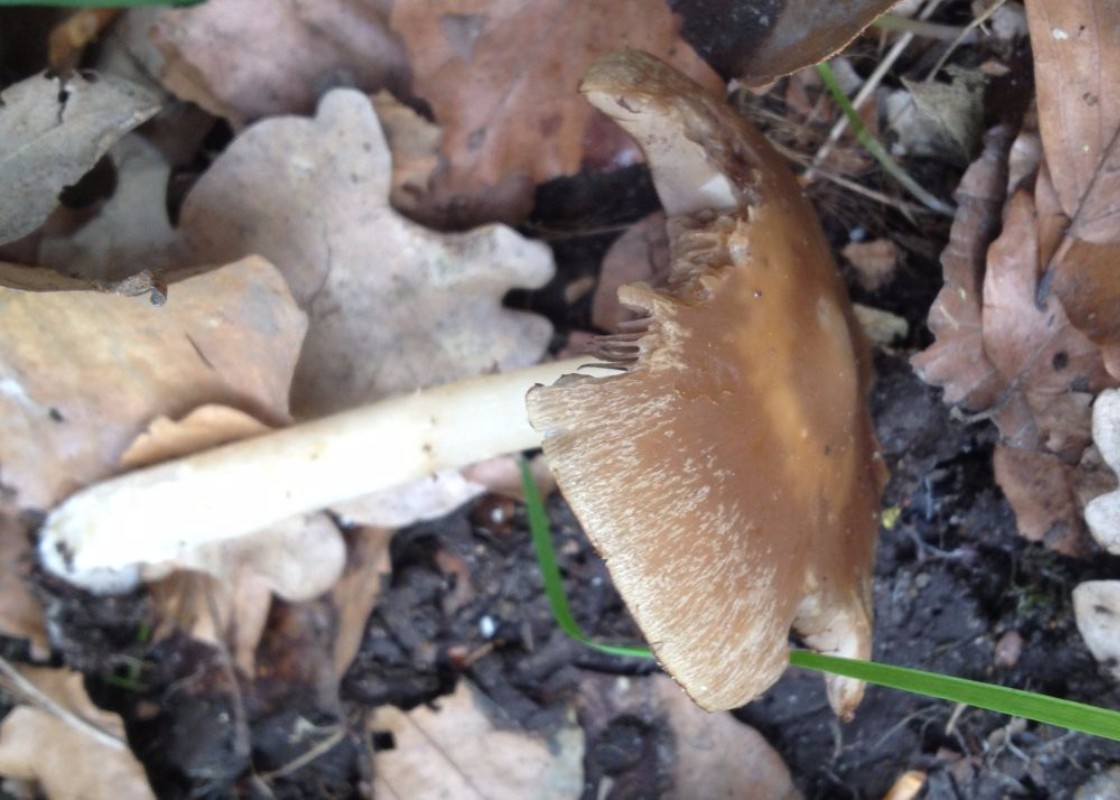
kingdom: Fungi
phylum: Basidiomycota
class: Agaricomycetes
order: Agaricales
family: Psathyrellaceae
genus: Psathyrella
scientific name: Psathyrella spadiceogrisea
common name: gråbrun mørkhat
